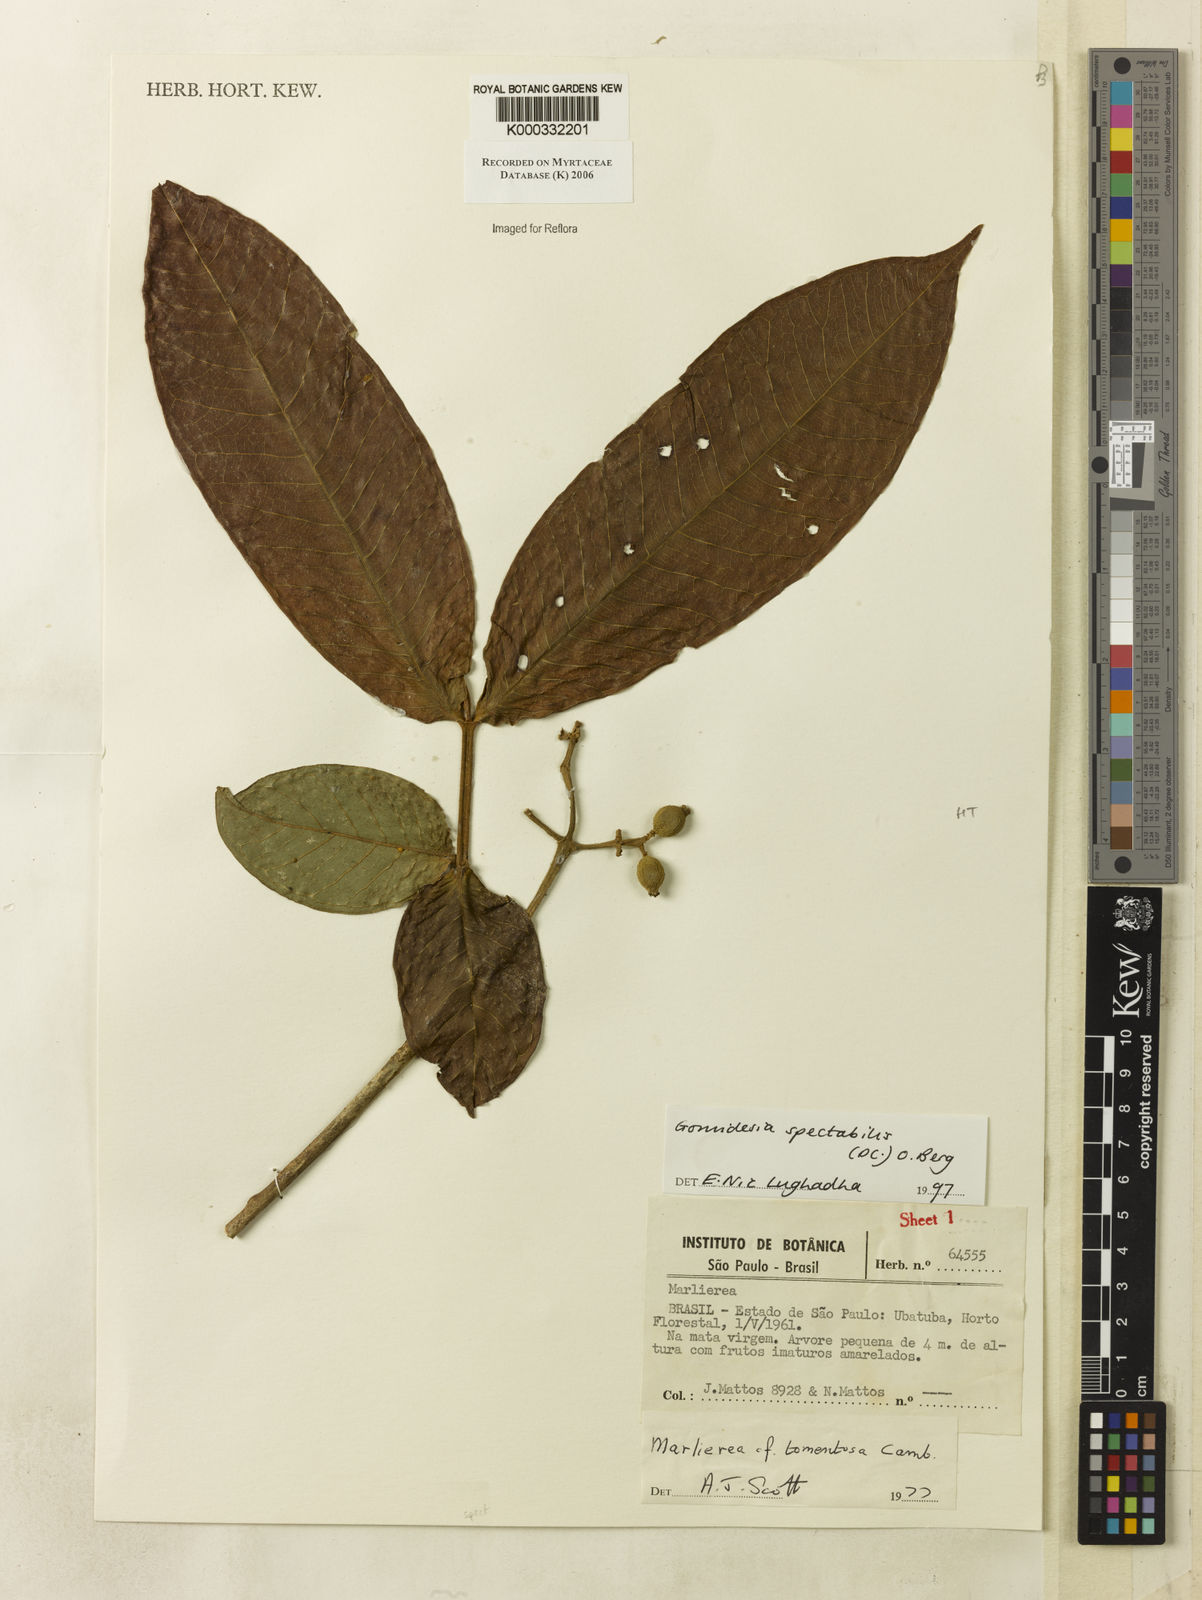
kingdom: Plantae
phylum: Tracheophyta
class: Magnoliopsida
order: Myrtales
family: Myrtaceae
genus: Myrcia
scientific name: Myrcia spectabilis
